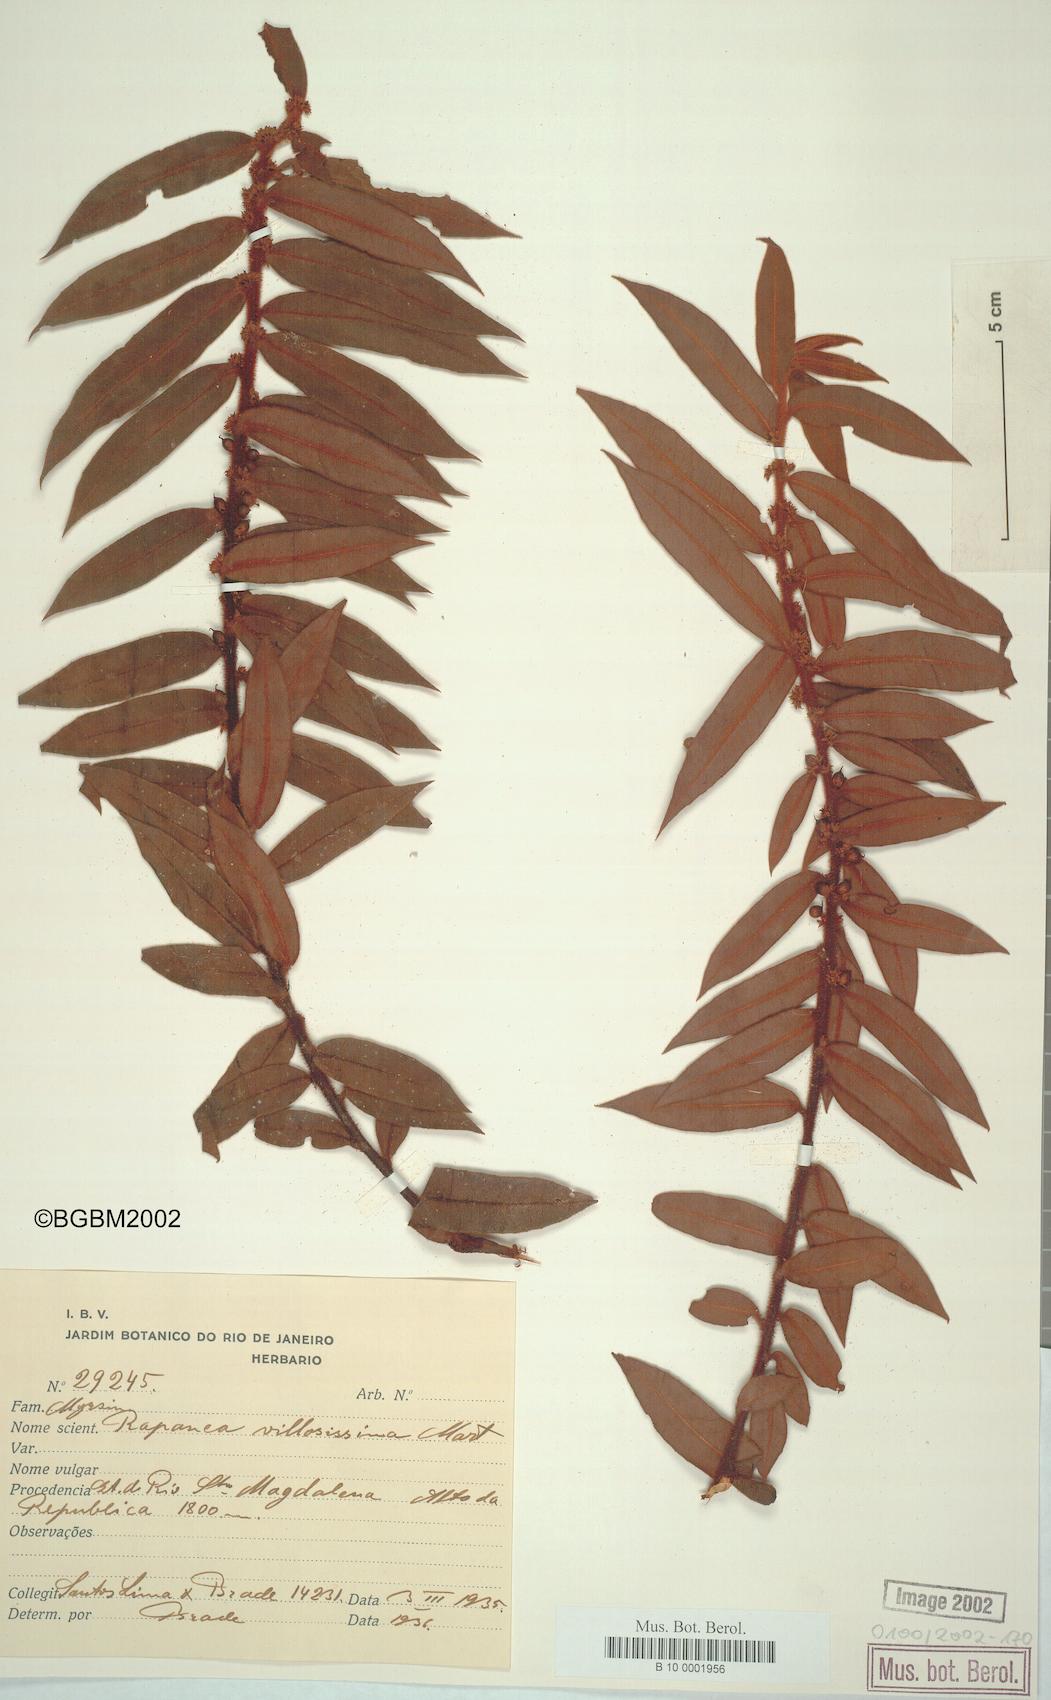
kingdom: Plantae
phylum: Tracheophyta
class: Magnoliopsida
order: Ericales
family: Primulaceae
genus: Myrsine
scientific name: Myrsine villosissima
